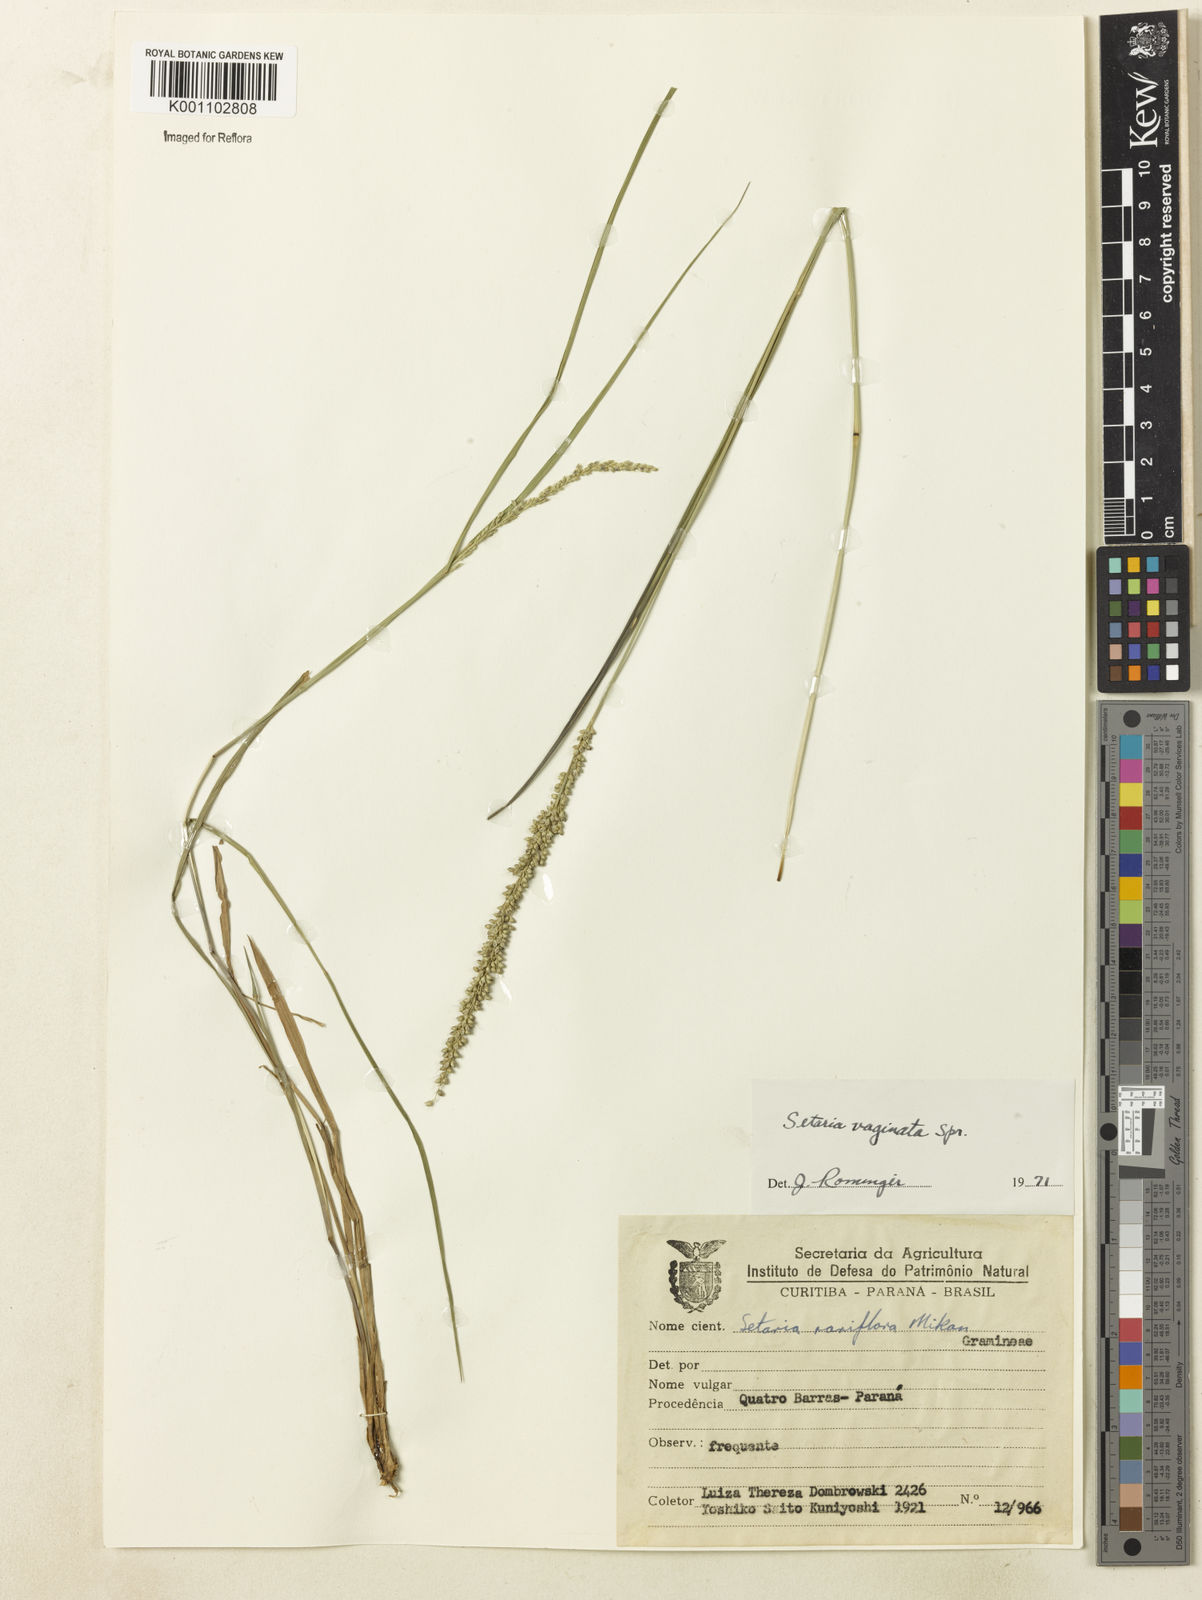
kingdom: Plantae
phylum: Tracheophyta
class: Liliopsida
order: Poales
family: Poaceae
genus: Setaria
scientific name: Setaria setosa
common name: West indies bristle grass
